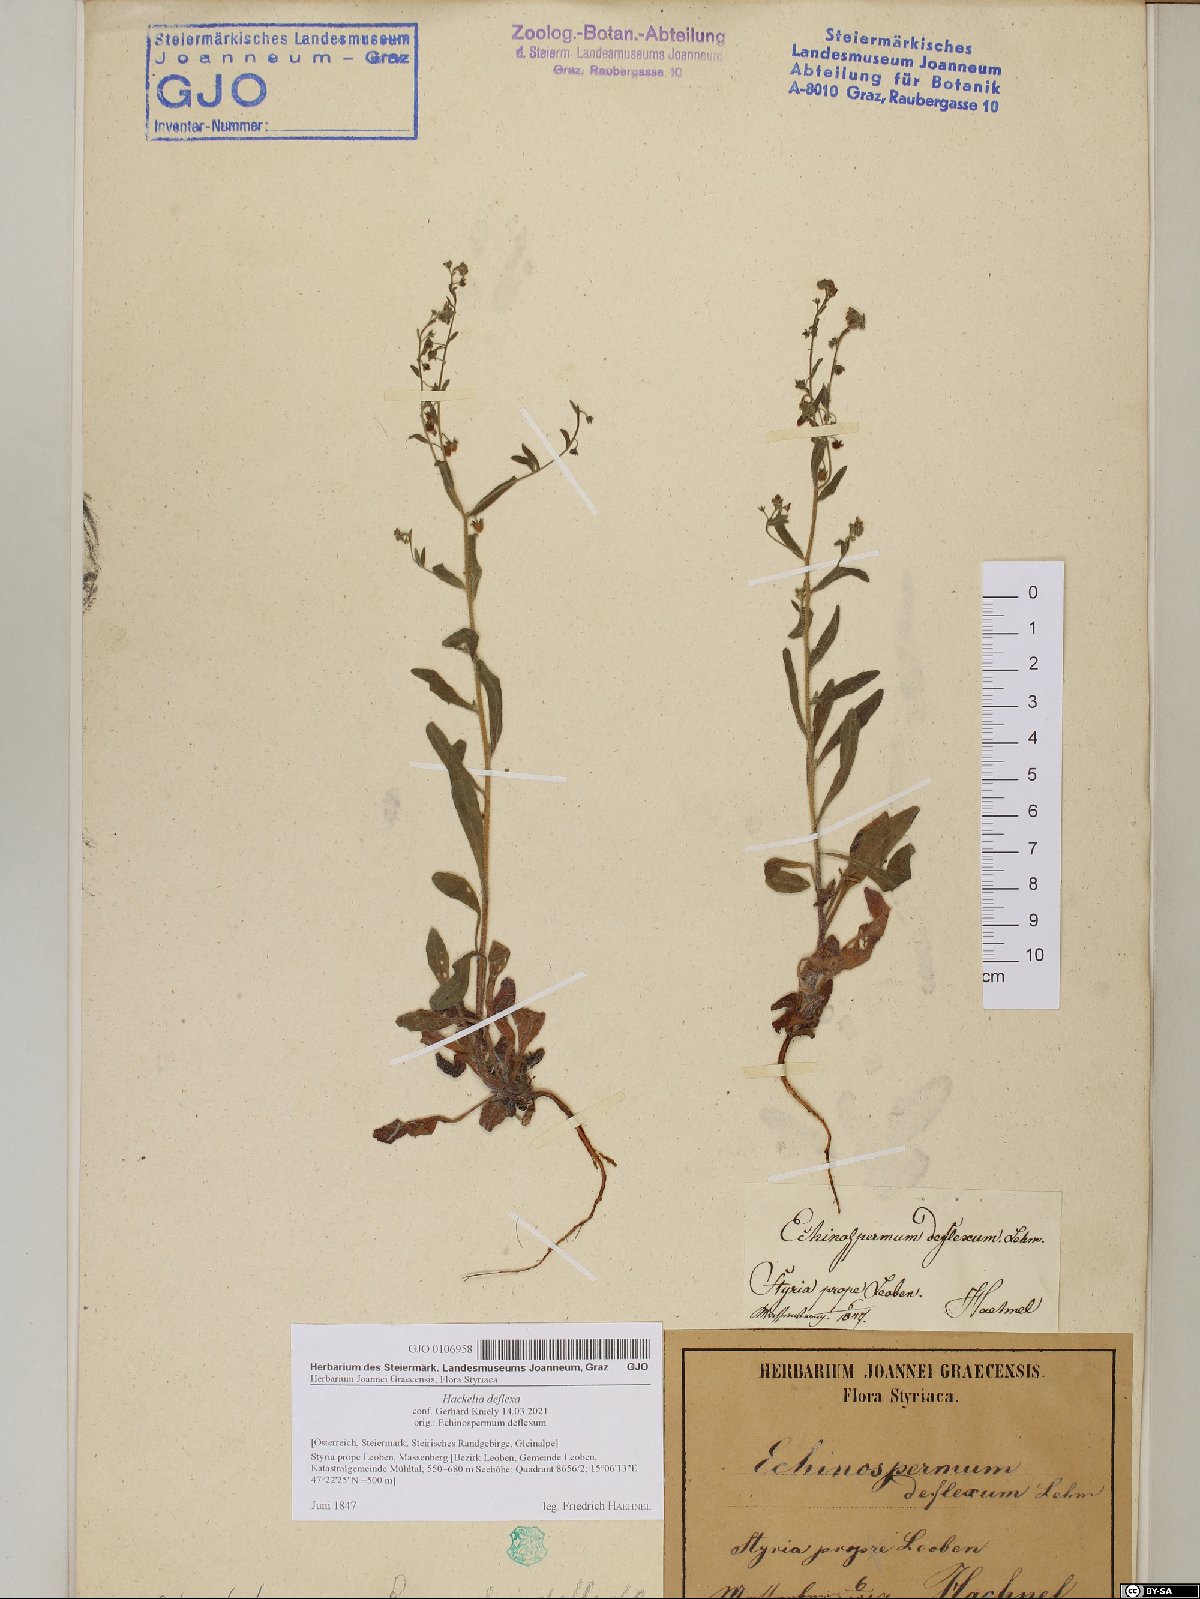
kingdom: Plantae
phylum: Tracheophyta
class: Magnoliopsida
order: Boraginales
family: Boraginaceae
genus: Hackelia
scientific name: Hackelia deflexa
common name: Nodding stickseed
